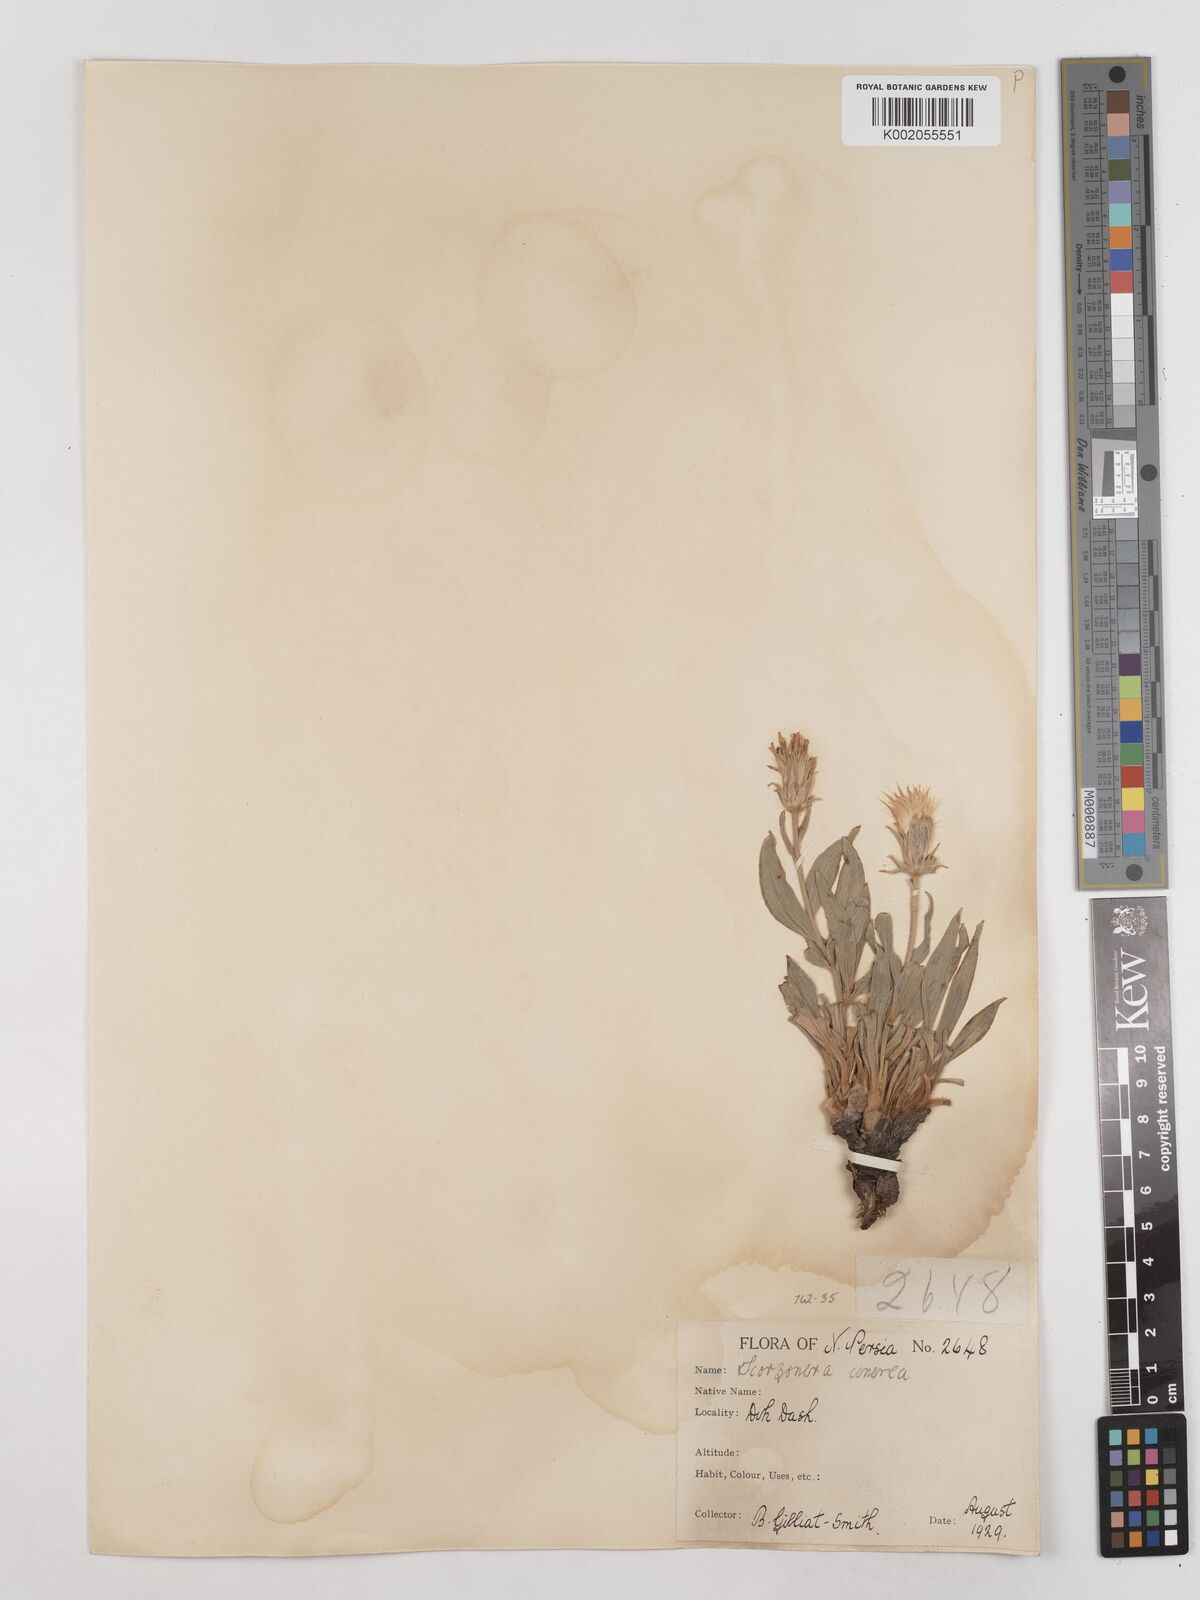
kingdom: Plantae
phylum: Tracheophyta
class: Magnoliopsida
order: Asterales
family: Asteraceae
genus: Cigdemia
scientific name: Cigdemia cinerea
